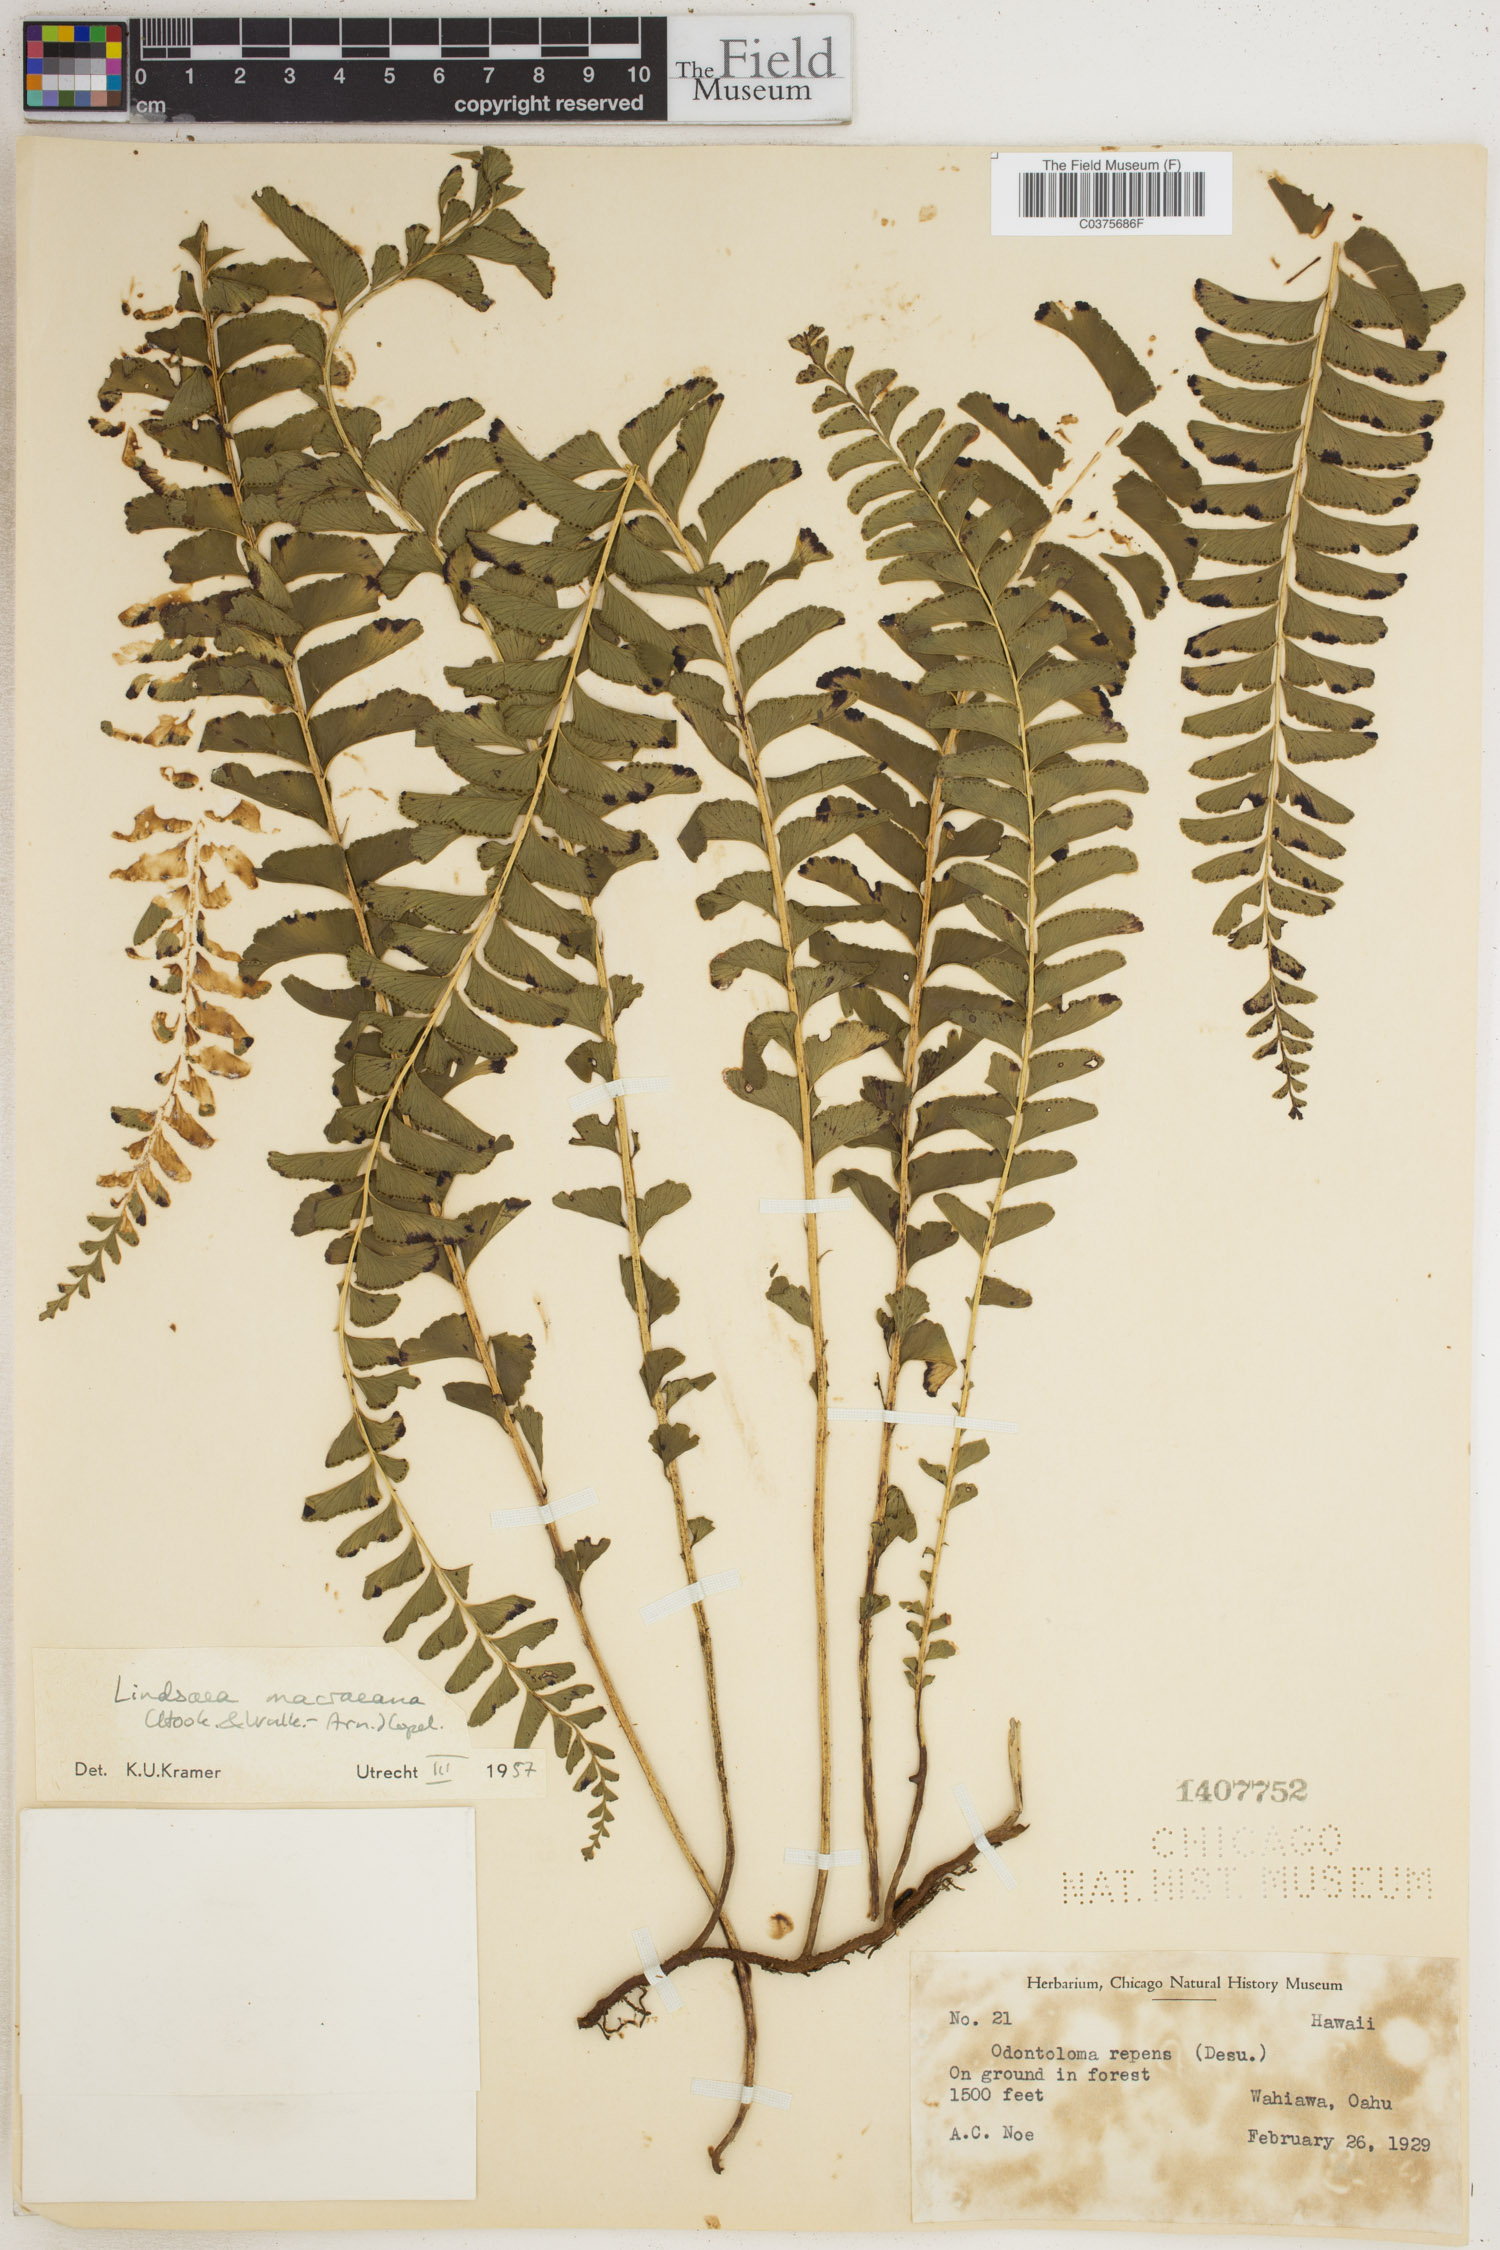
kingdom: Plantae
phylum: Tracheophyta
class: Polypodiopsida
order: Polypodiales
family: Lindsaeaceae
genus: Lindsaea
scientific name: Lindsaea macraeana
